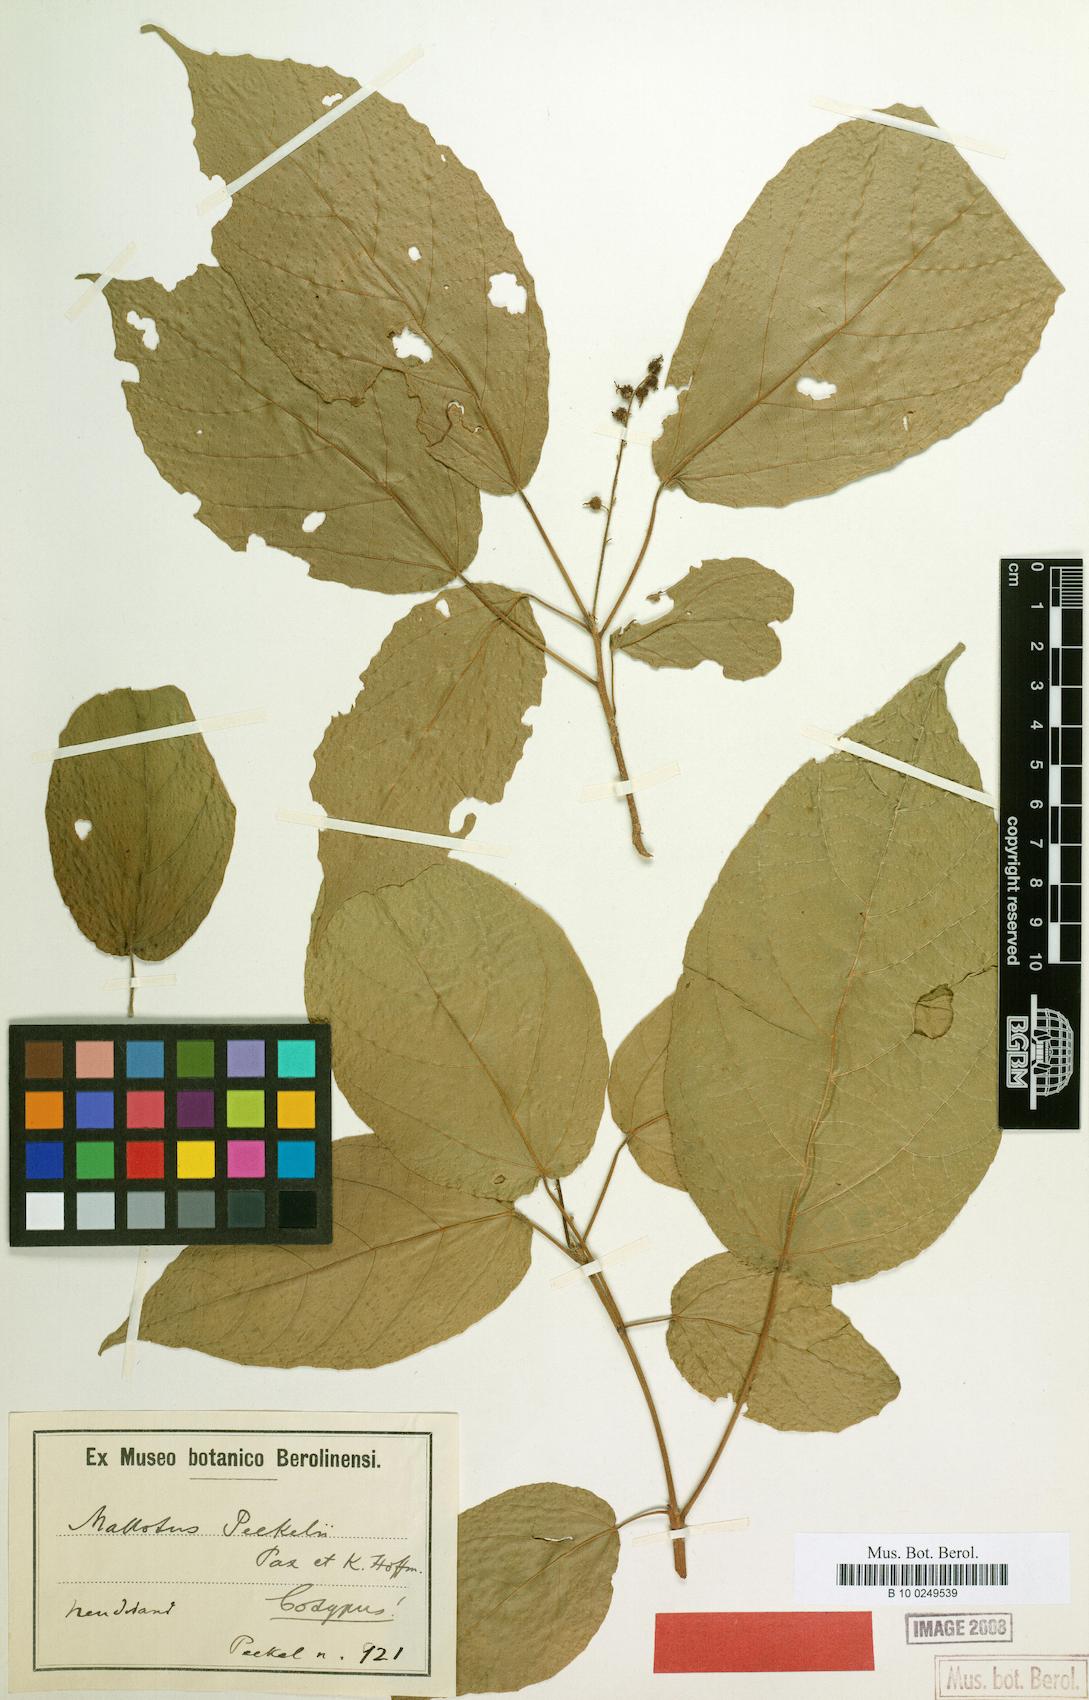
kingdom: Plantae
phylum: Tracheophyta
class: Magnoliopsida
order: Malpighiales
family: Euphorbiaceae
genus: Mallotus
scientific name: Mallotus peltatus
